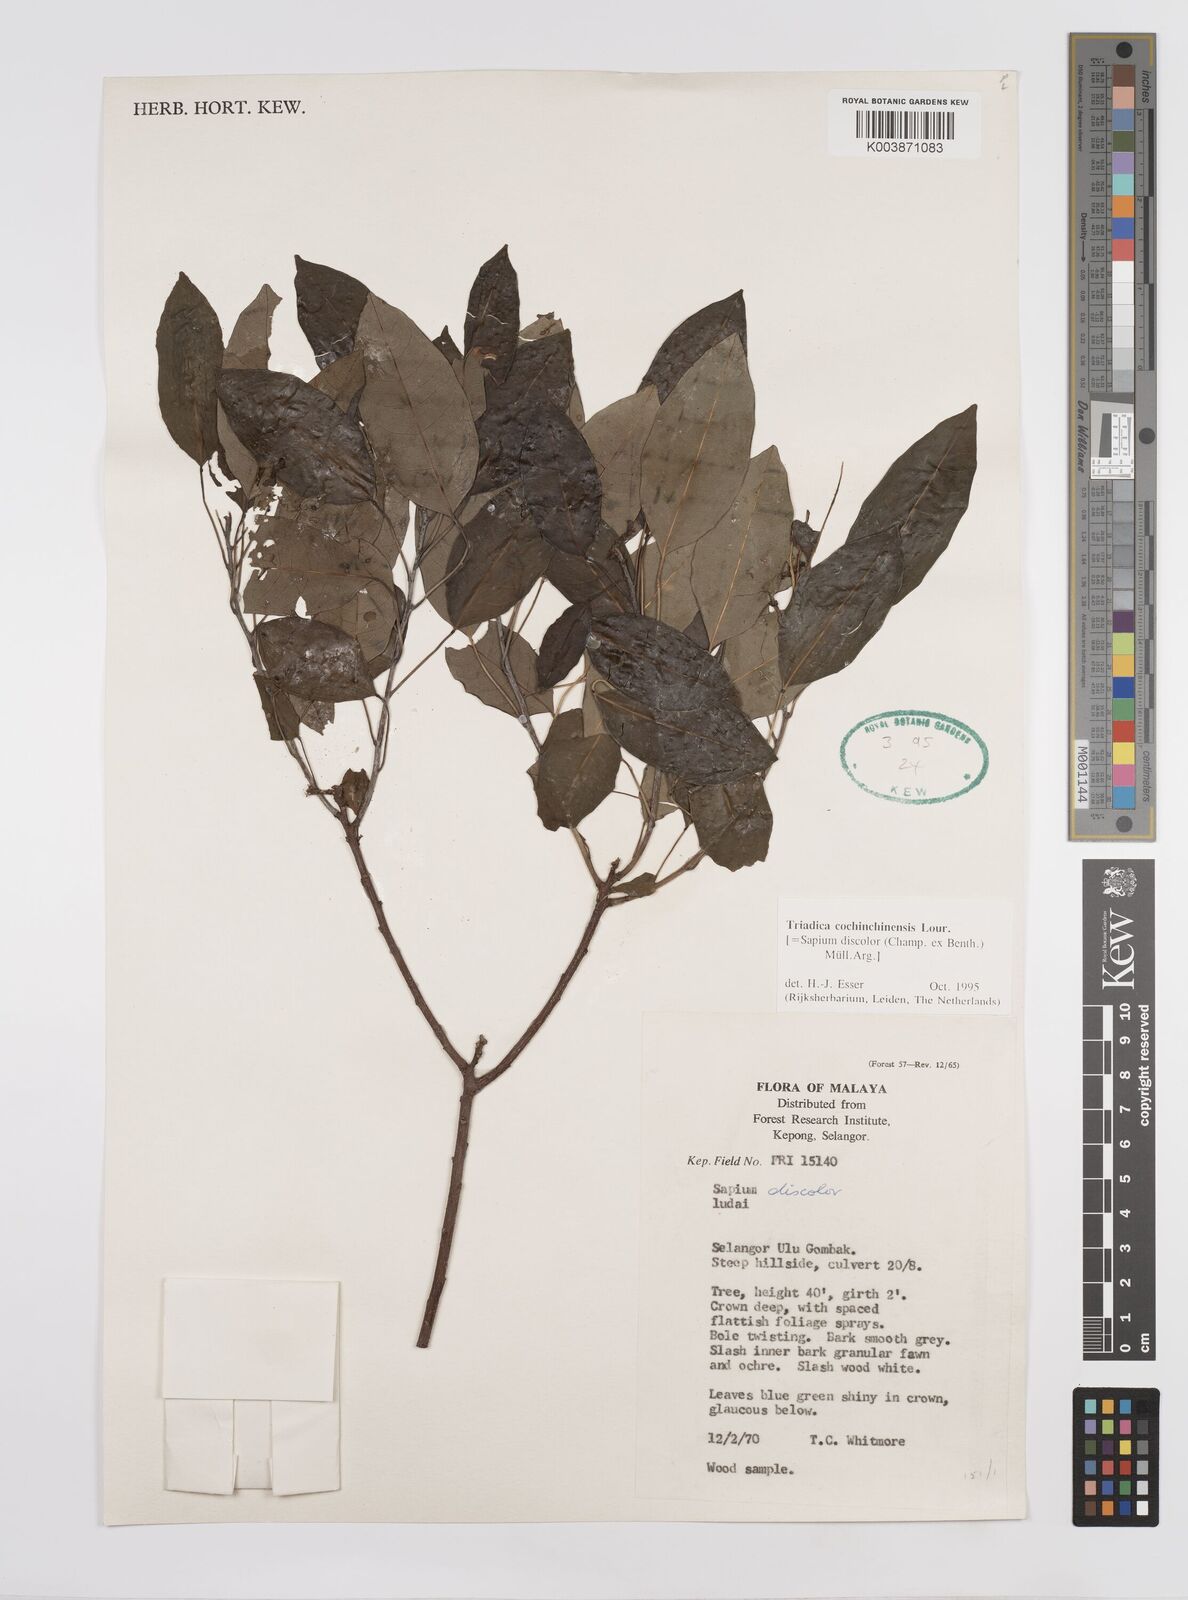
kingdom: Plantae
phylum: Tracheophyta
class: Magnoliopsida
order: Malpighiales
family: Euphorbiaceae
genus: Triadica
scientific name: Triadica cochinchinensis
